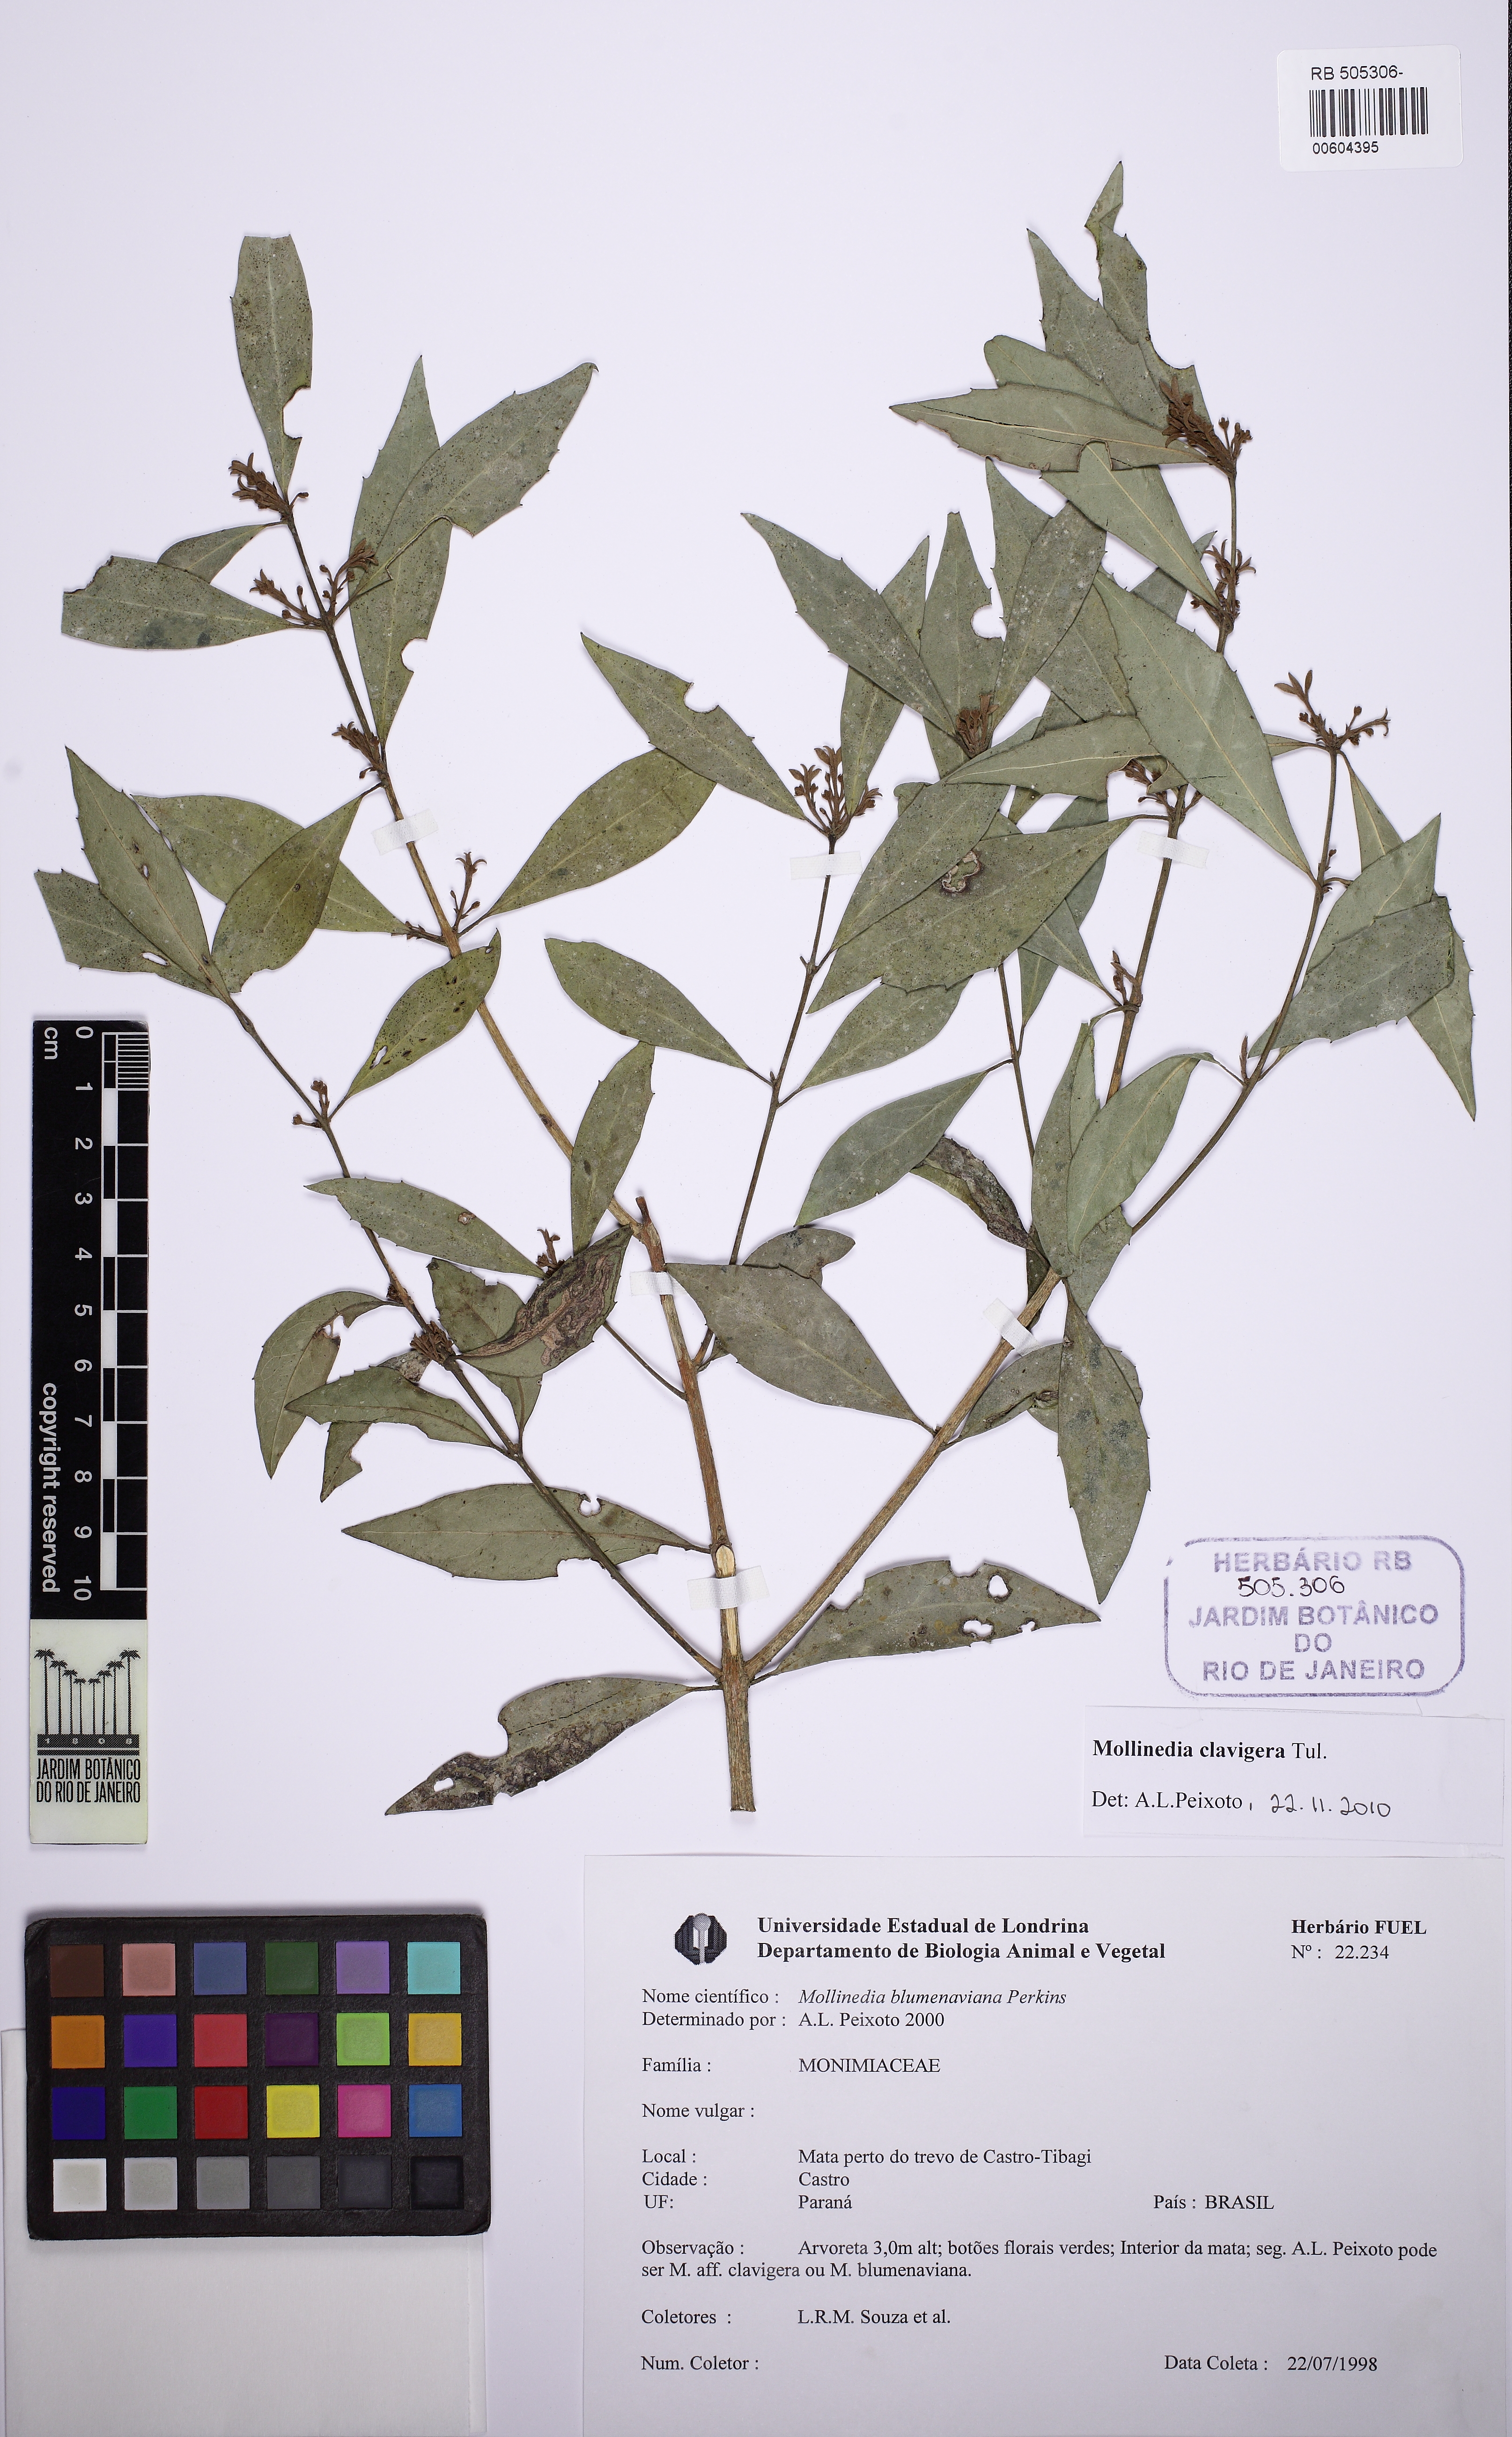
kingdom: Plantae
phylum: Tracheophyta
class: Magnoliopsida
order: Laurales
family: Monimiaceae
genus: Mollinedia
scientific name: Mollinedia pfitzeriana
